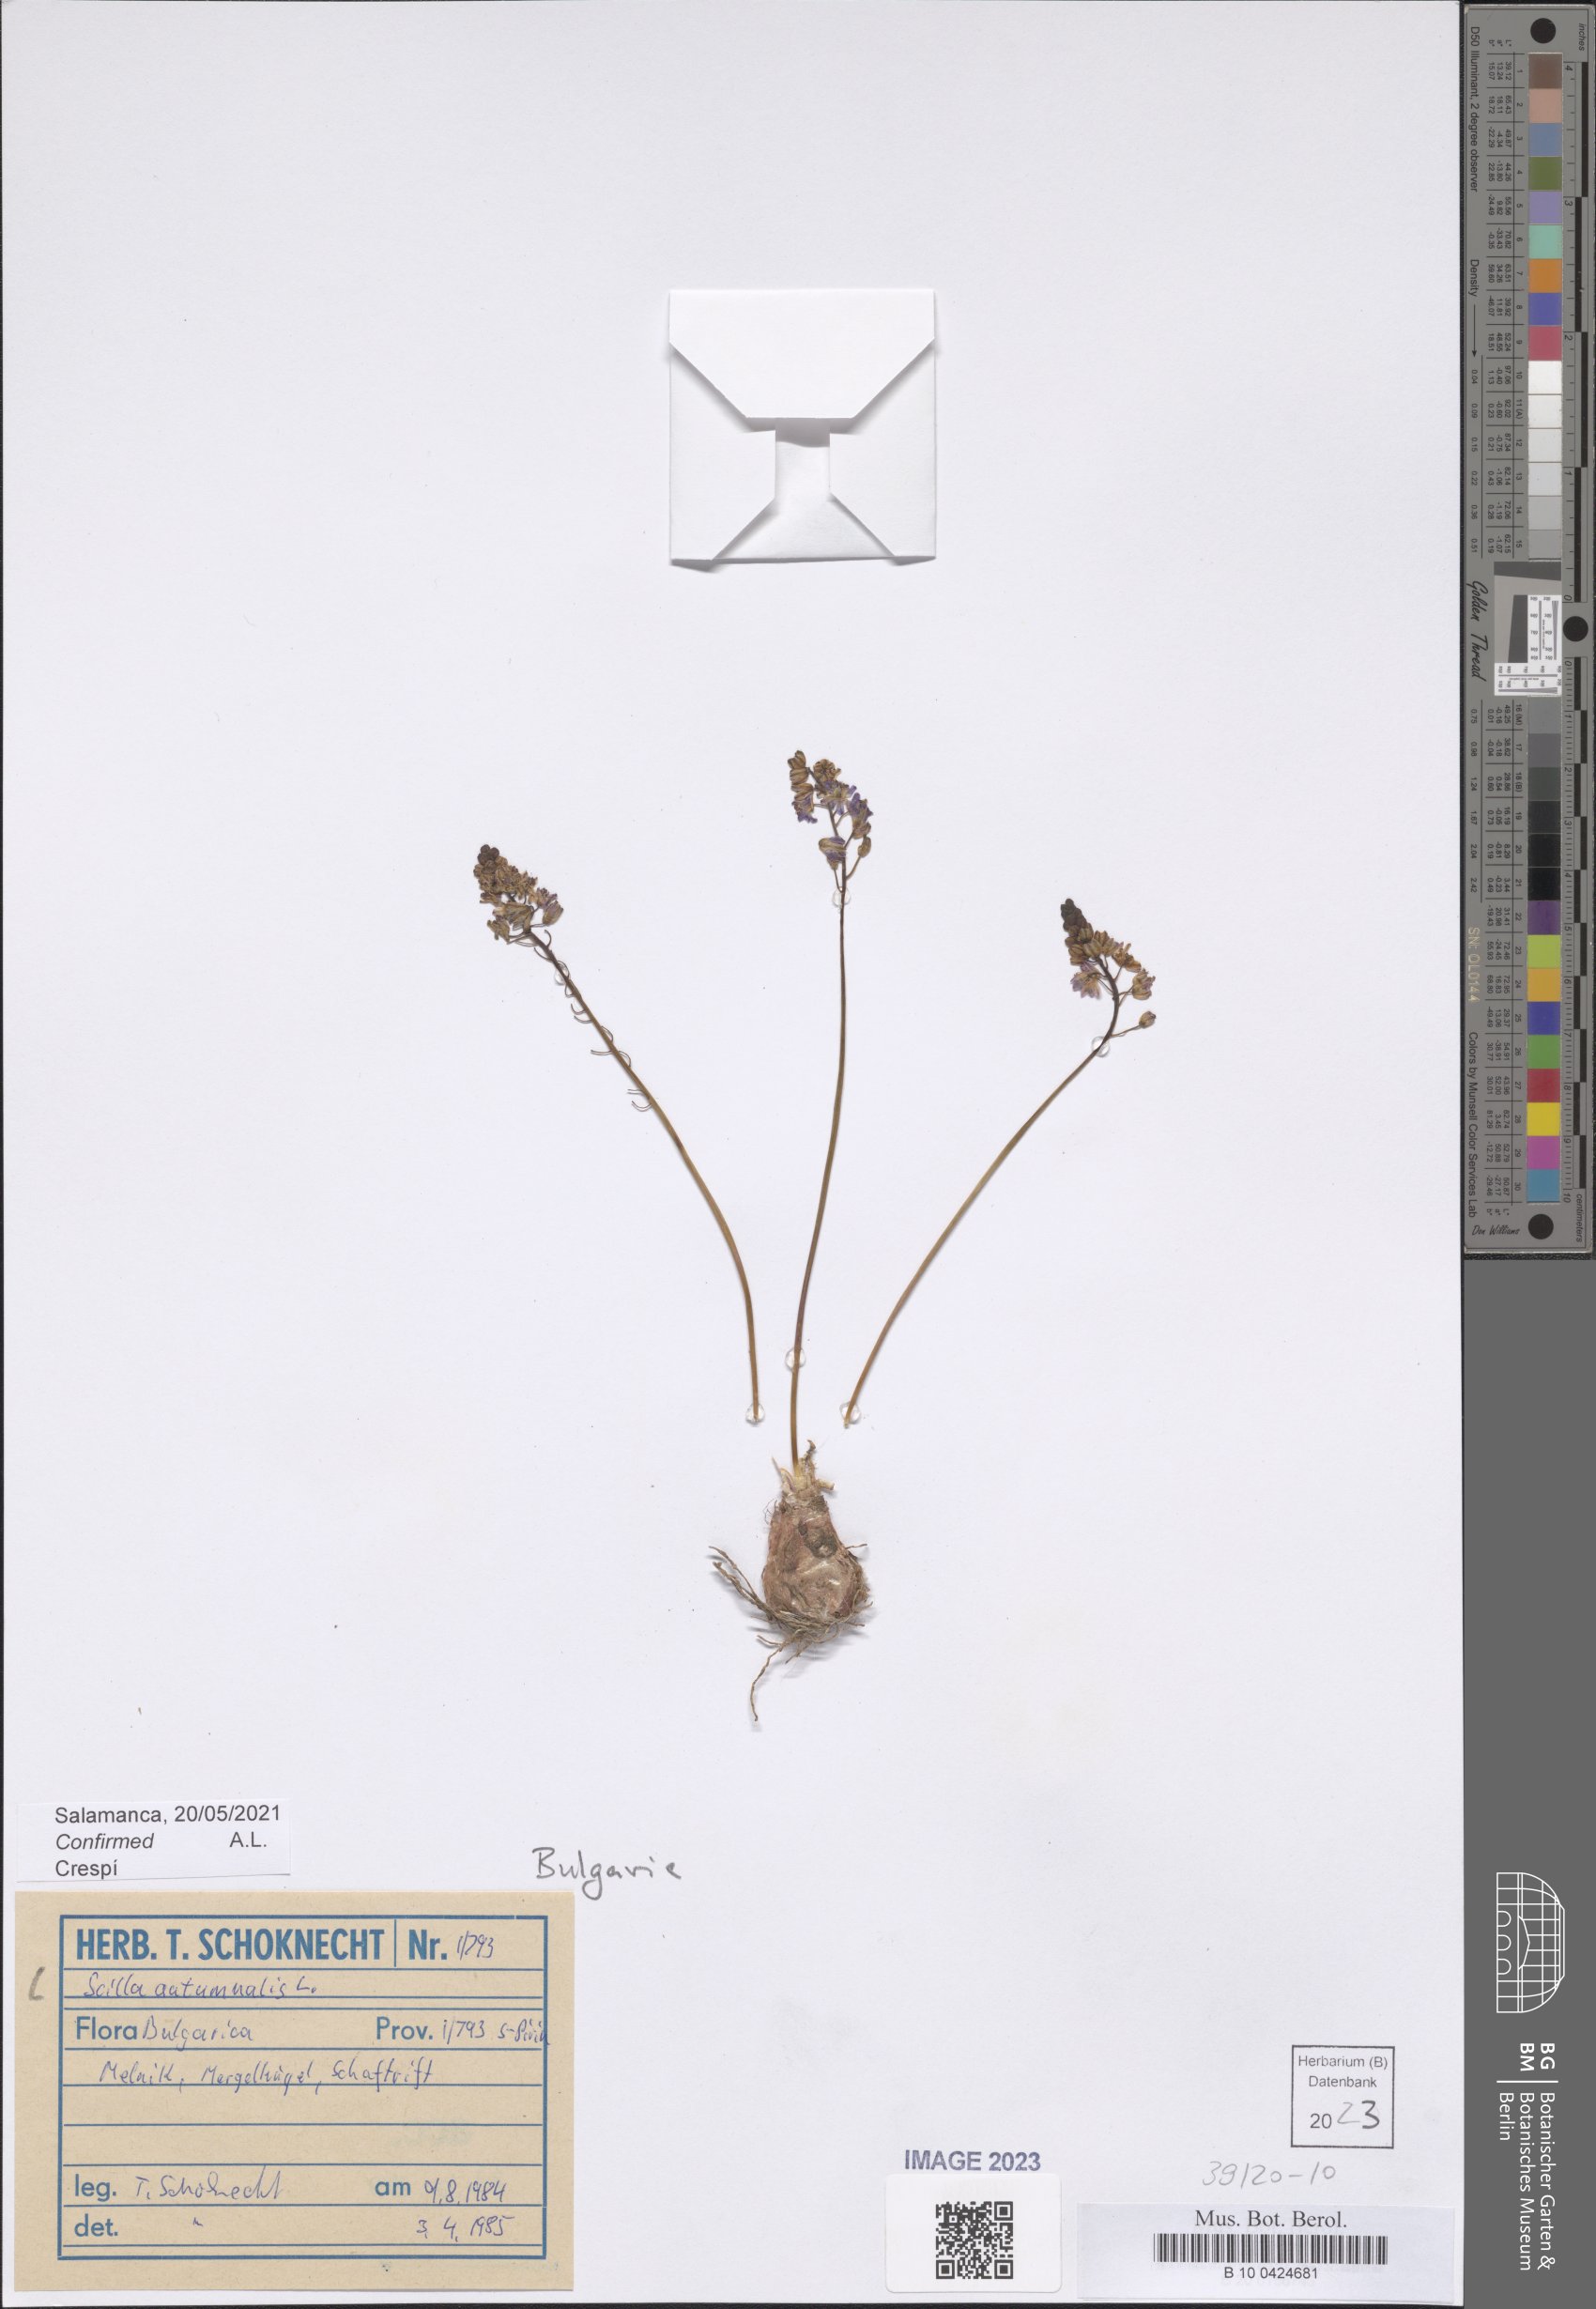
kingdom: Plantae
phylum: Tracheophyta
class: Liliopsida
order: Asparagales
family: Asparagaceae
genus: Prospero
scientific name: Prospero autumnale
